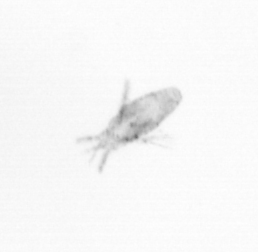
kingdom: Animalia
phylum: Arthropoda
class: Copepoda
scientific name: Copepoda
